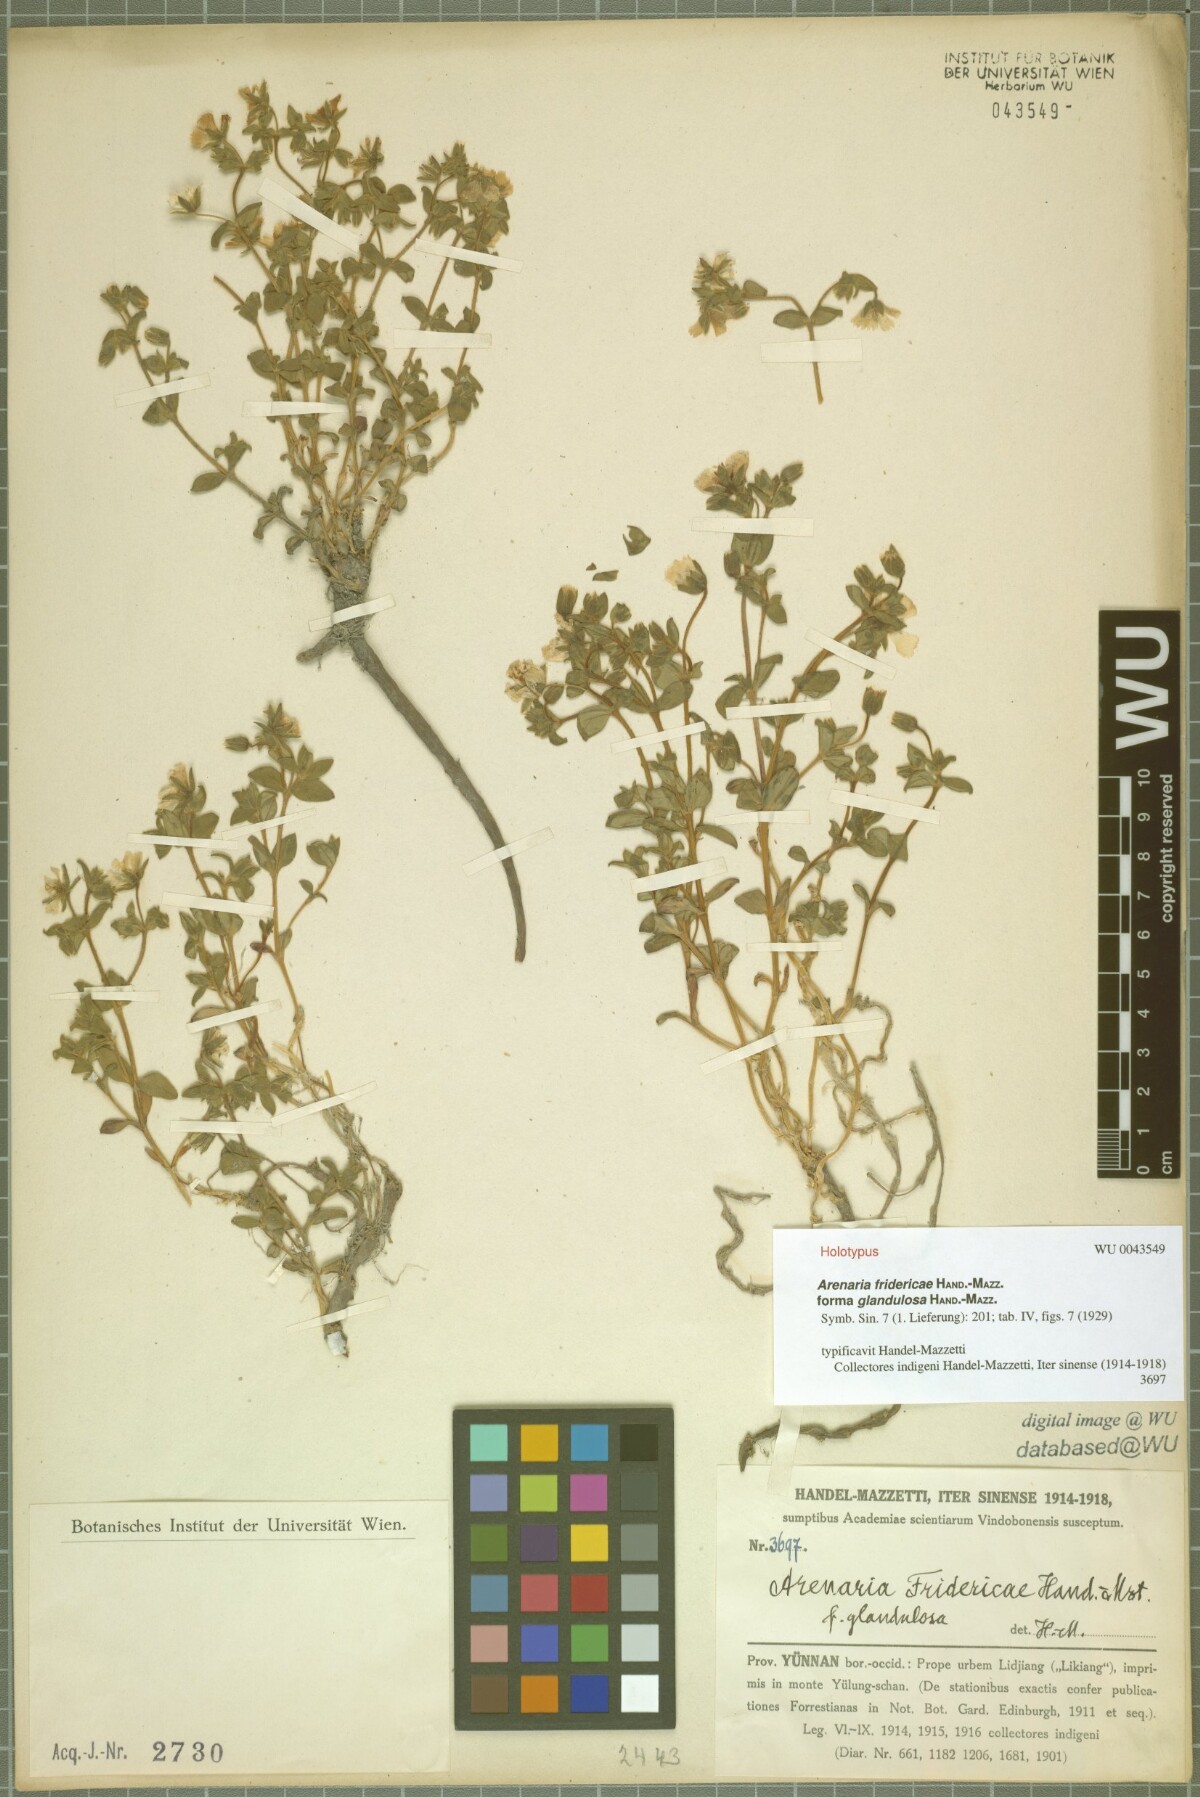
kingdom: Plantae
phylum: Tracheophyta
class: Magnoliopsida
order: Caryophyllales
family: Caryophyllaceae
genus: Odontostemma
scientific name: Odontostemma fridericae
